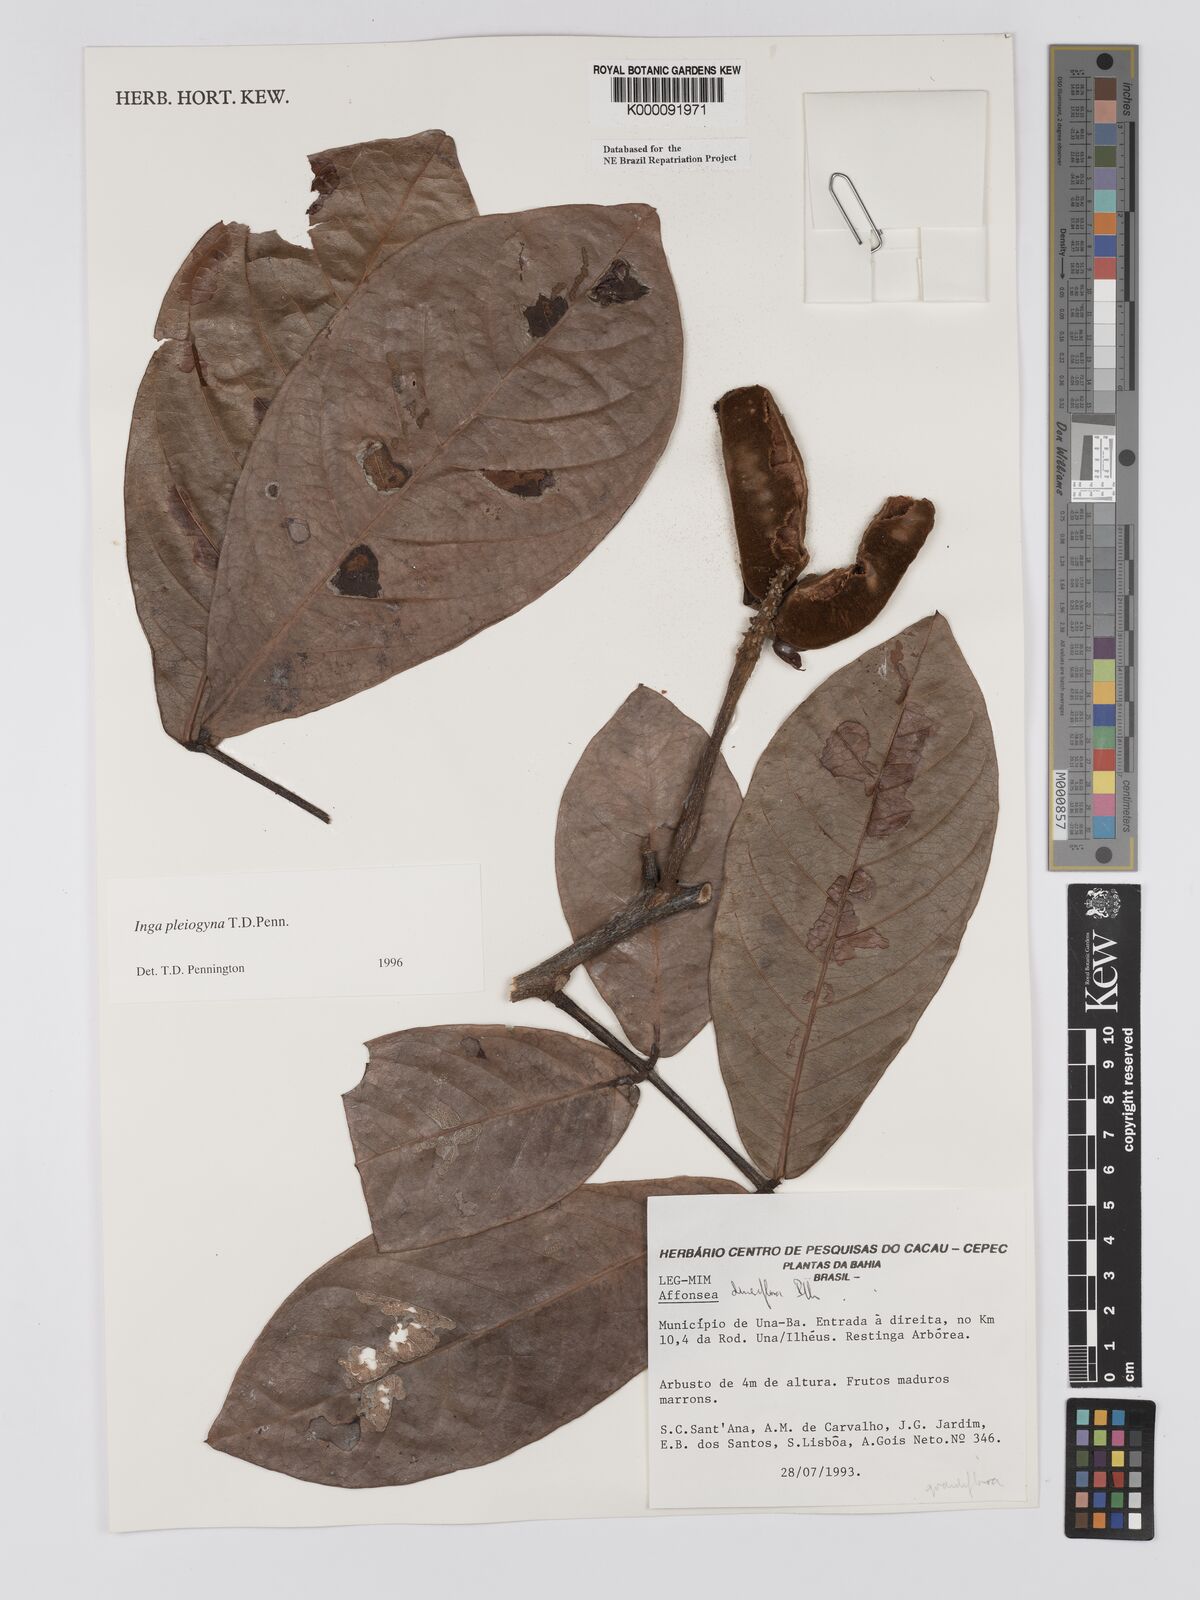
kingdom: Plantae
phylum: Tracheophyta
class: Magnoliopsida
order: Fabales
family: Fabaceae
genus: Inga
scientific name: Inga pleiogyna
